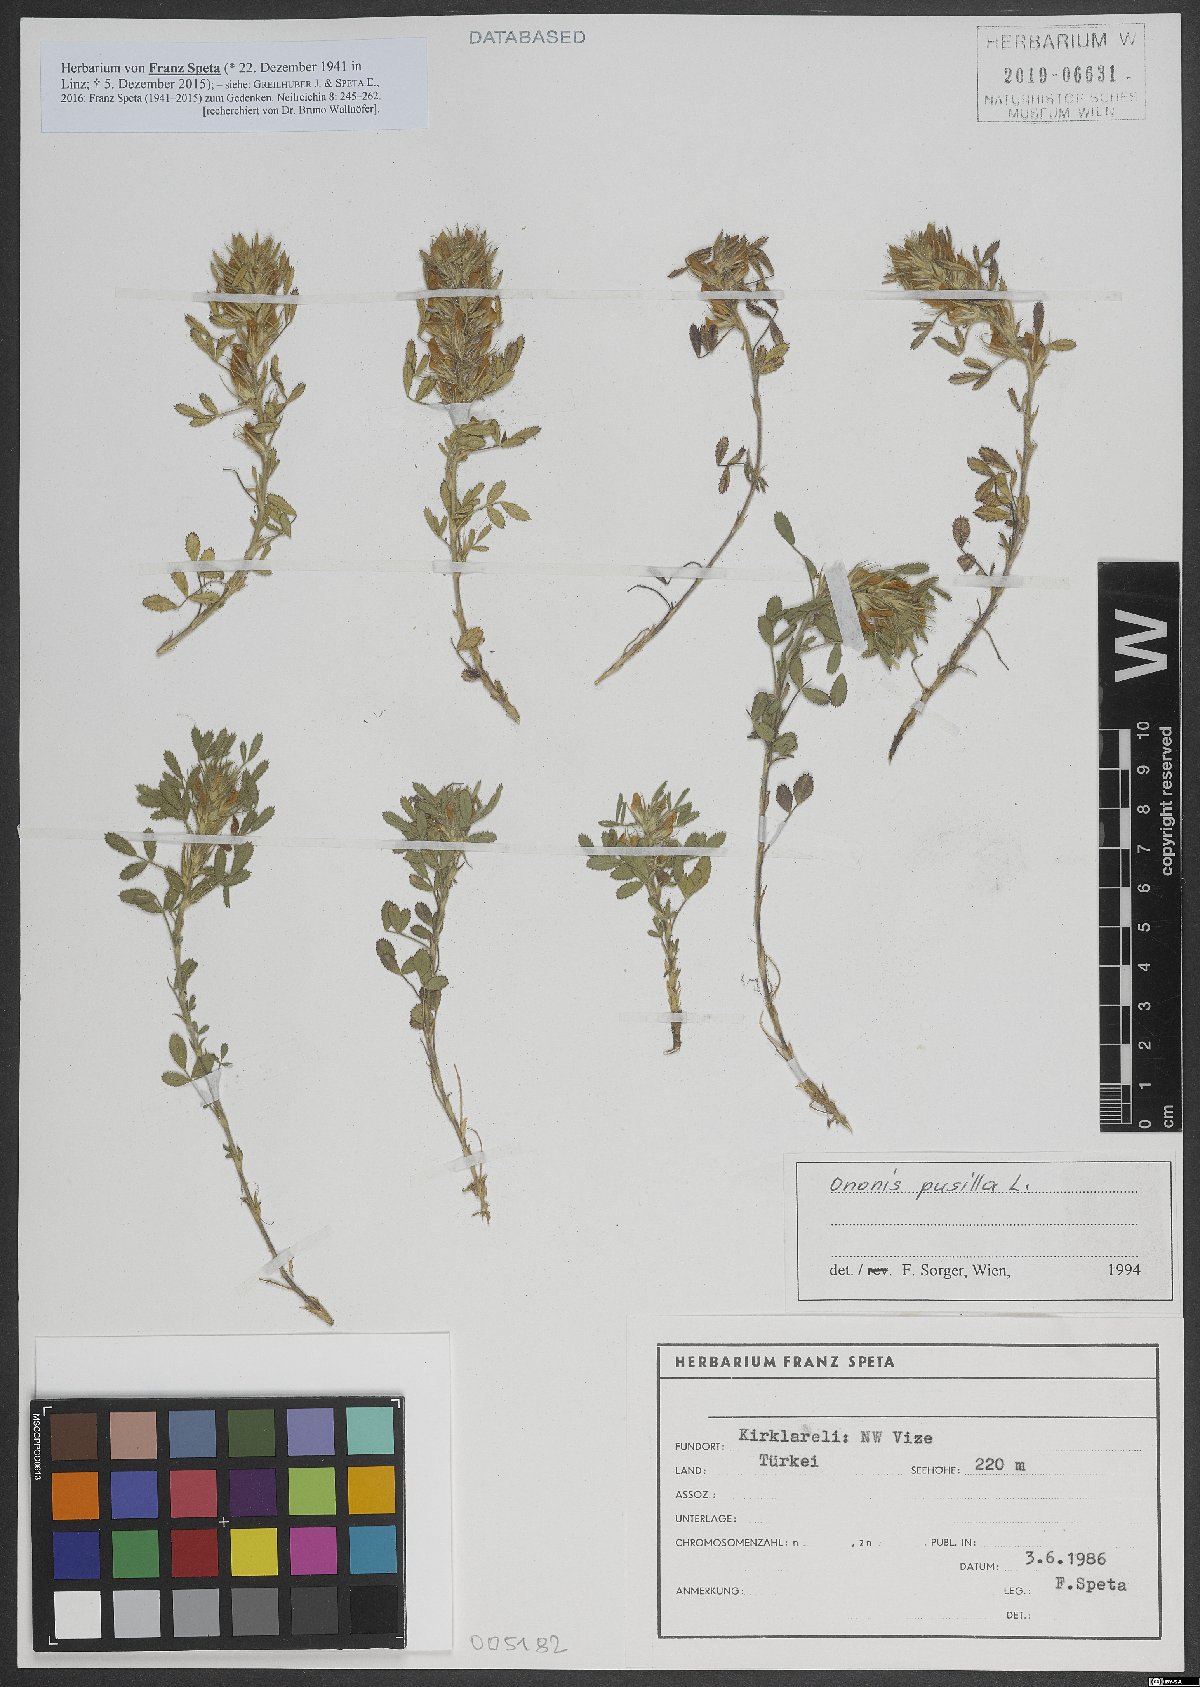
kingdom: Plantae
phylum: Tracheophyta
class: Magnoliopsida
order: Fabales
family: Fabaceae
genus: Ononis
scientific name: Ononis pusilla
